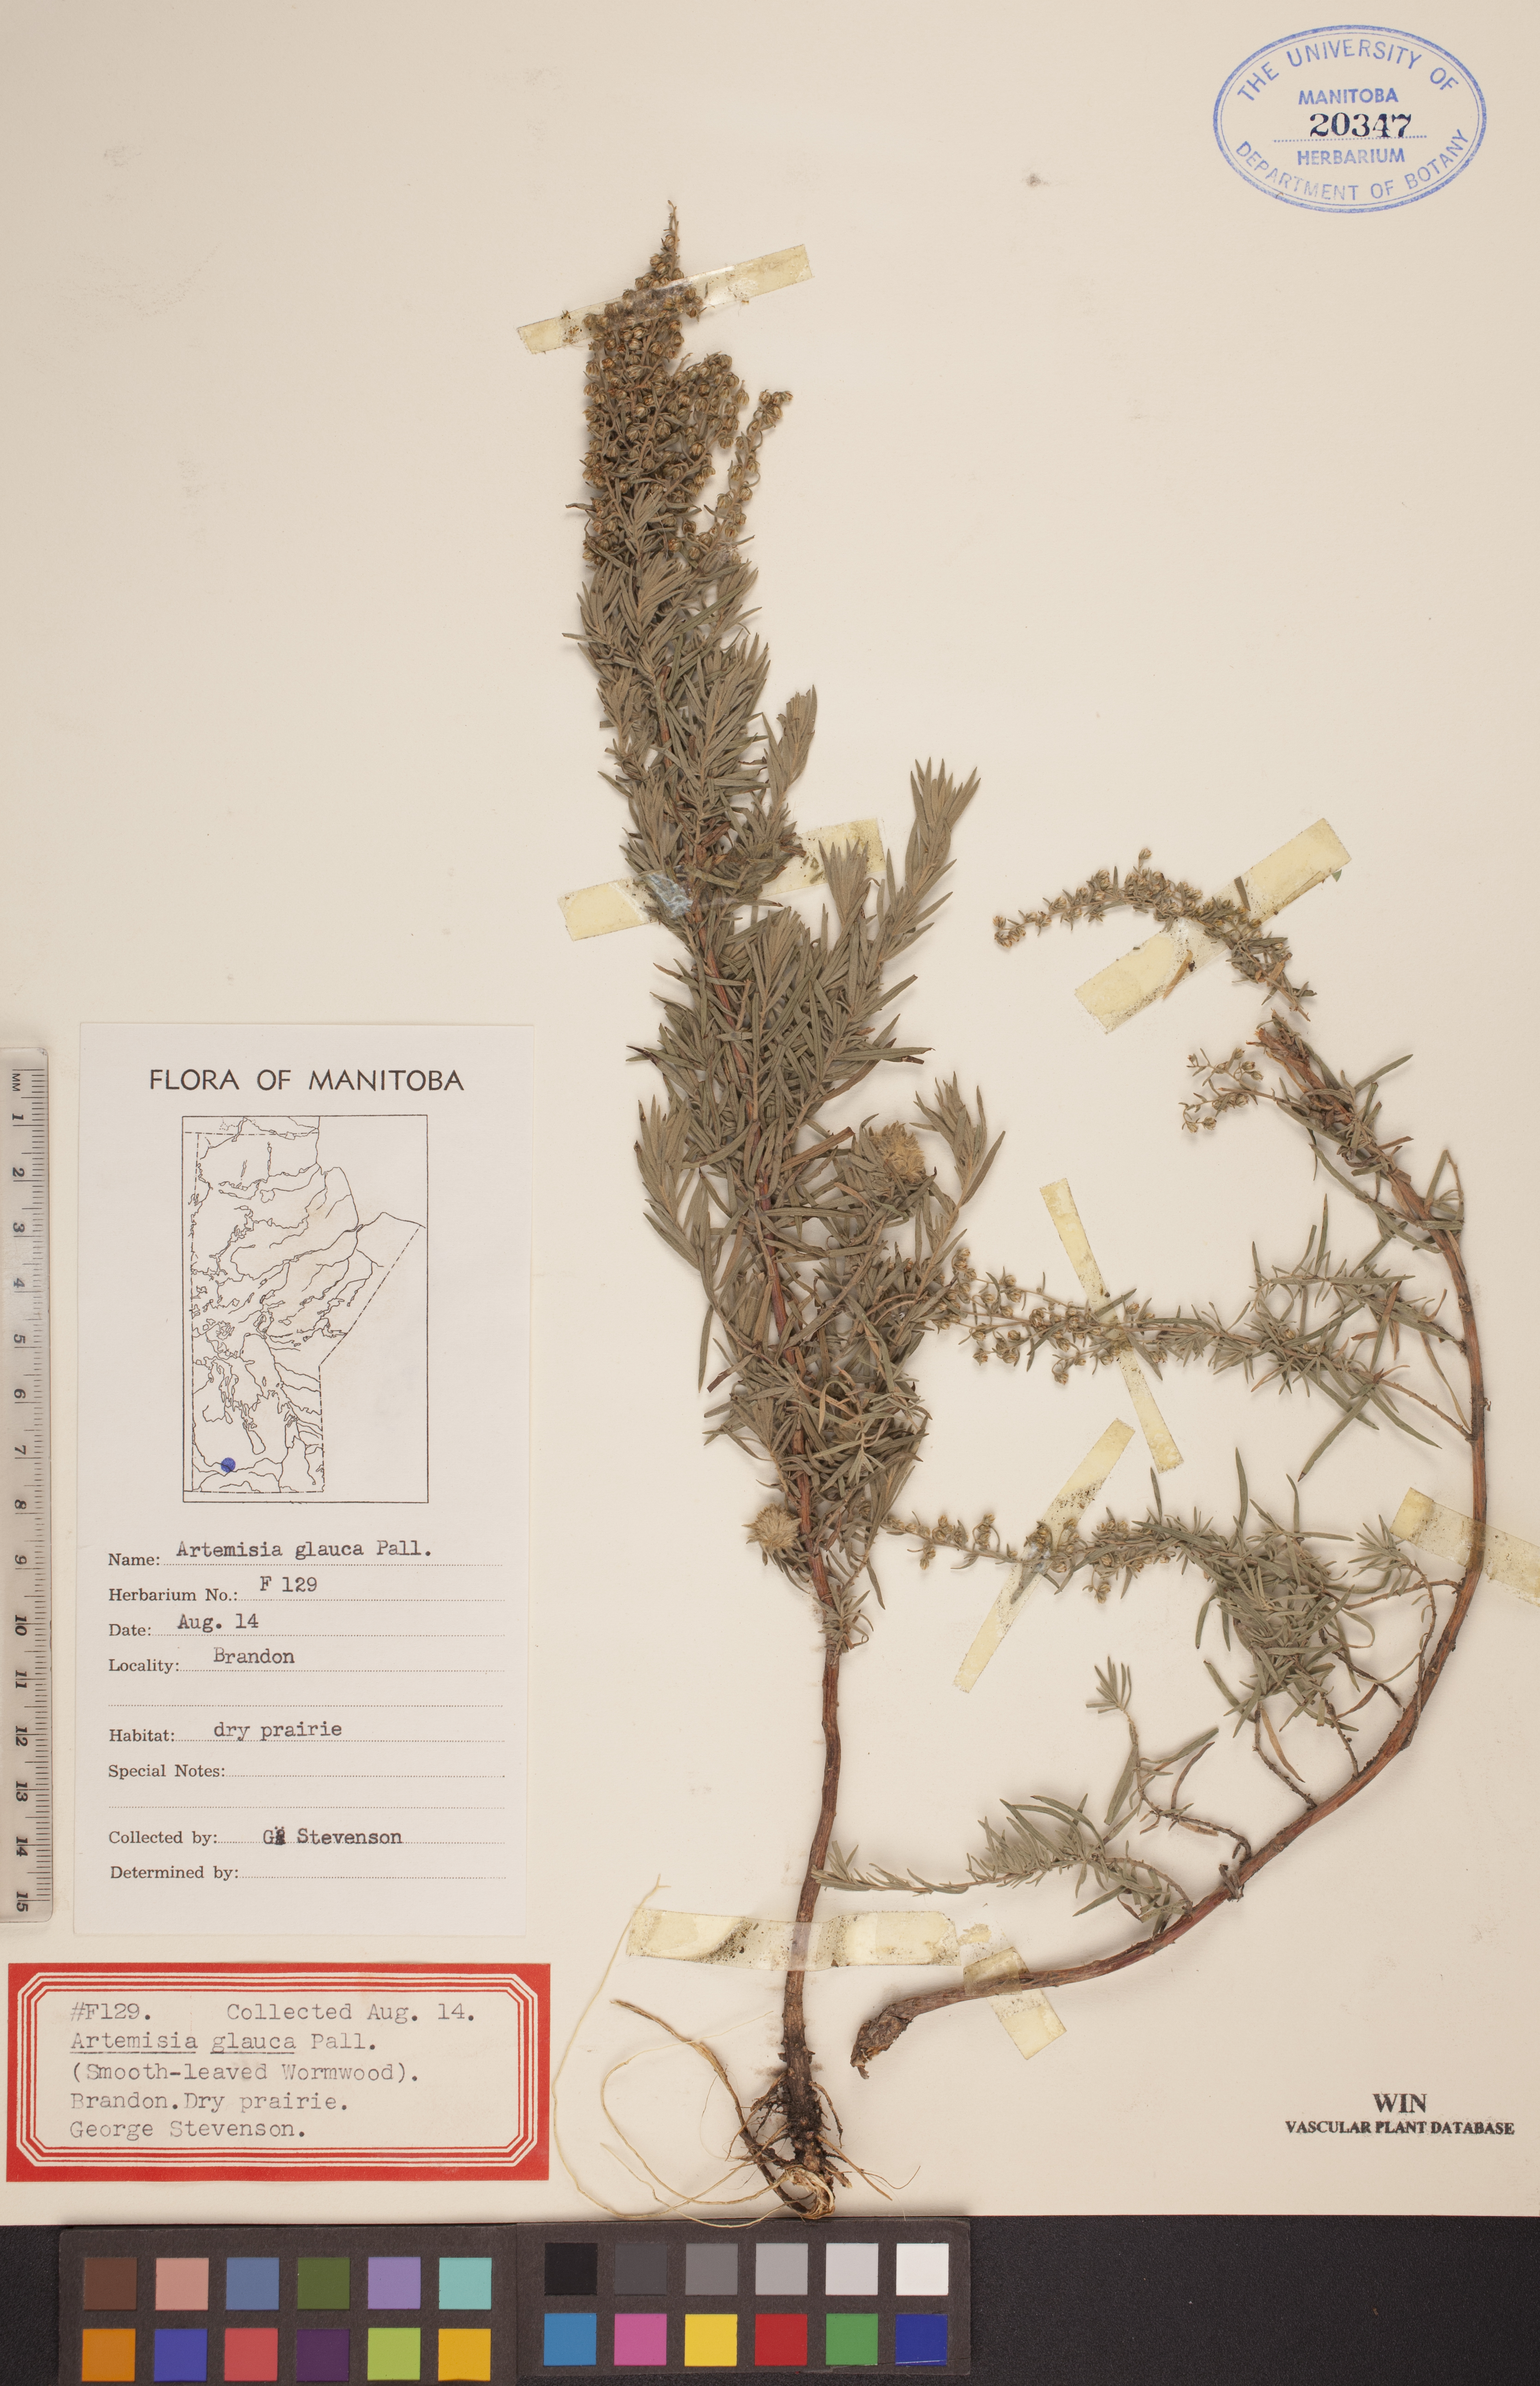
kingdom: Plantae
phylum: Tracheophyta
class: Magnoliopsida
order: Asterales
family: Asteraceae
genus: Artemisia
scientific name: Artemisia glauca
